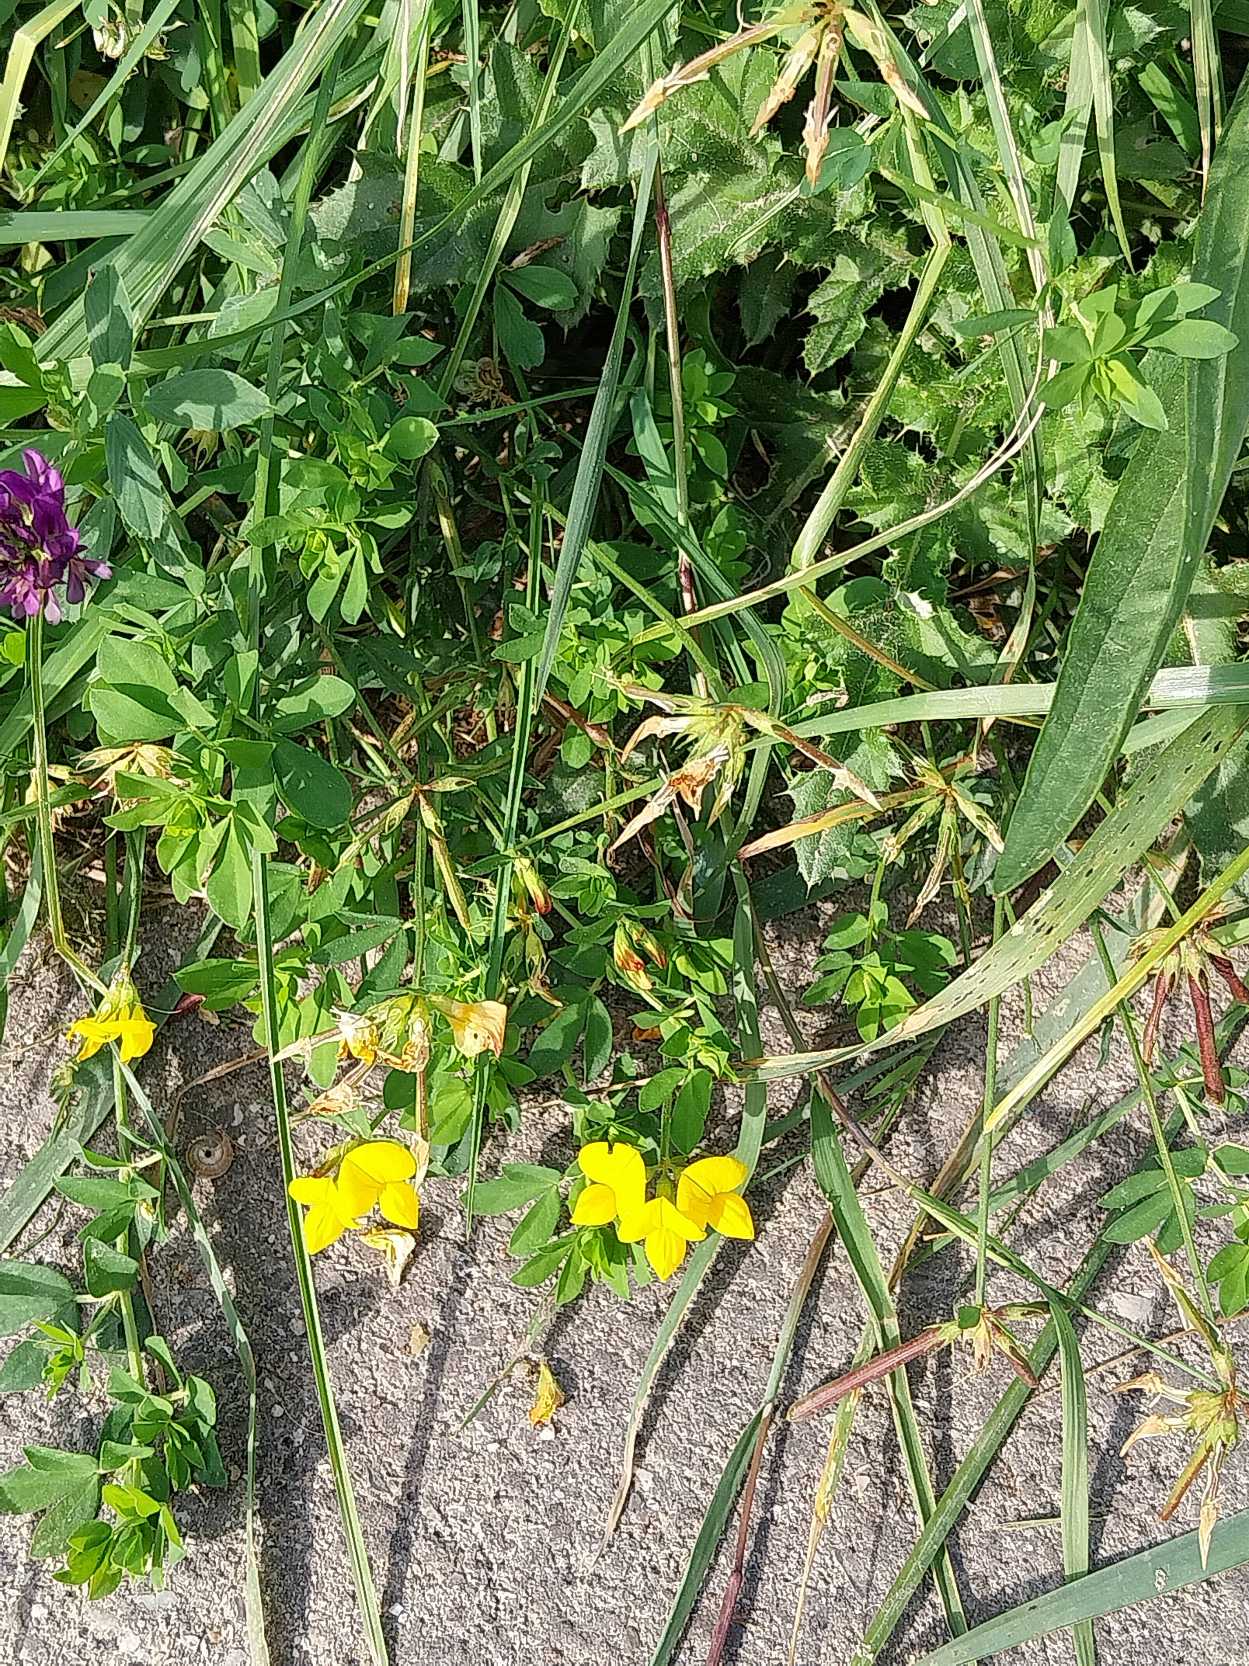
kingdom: Plantae
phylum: Tracheophyta
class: Magnoliopsida
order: Fabales
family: Fabaceae
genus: Lotus
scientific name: Lotus corniculatus
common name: Almindelig kællingetand
